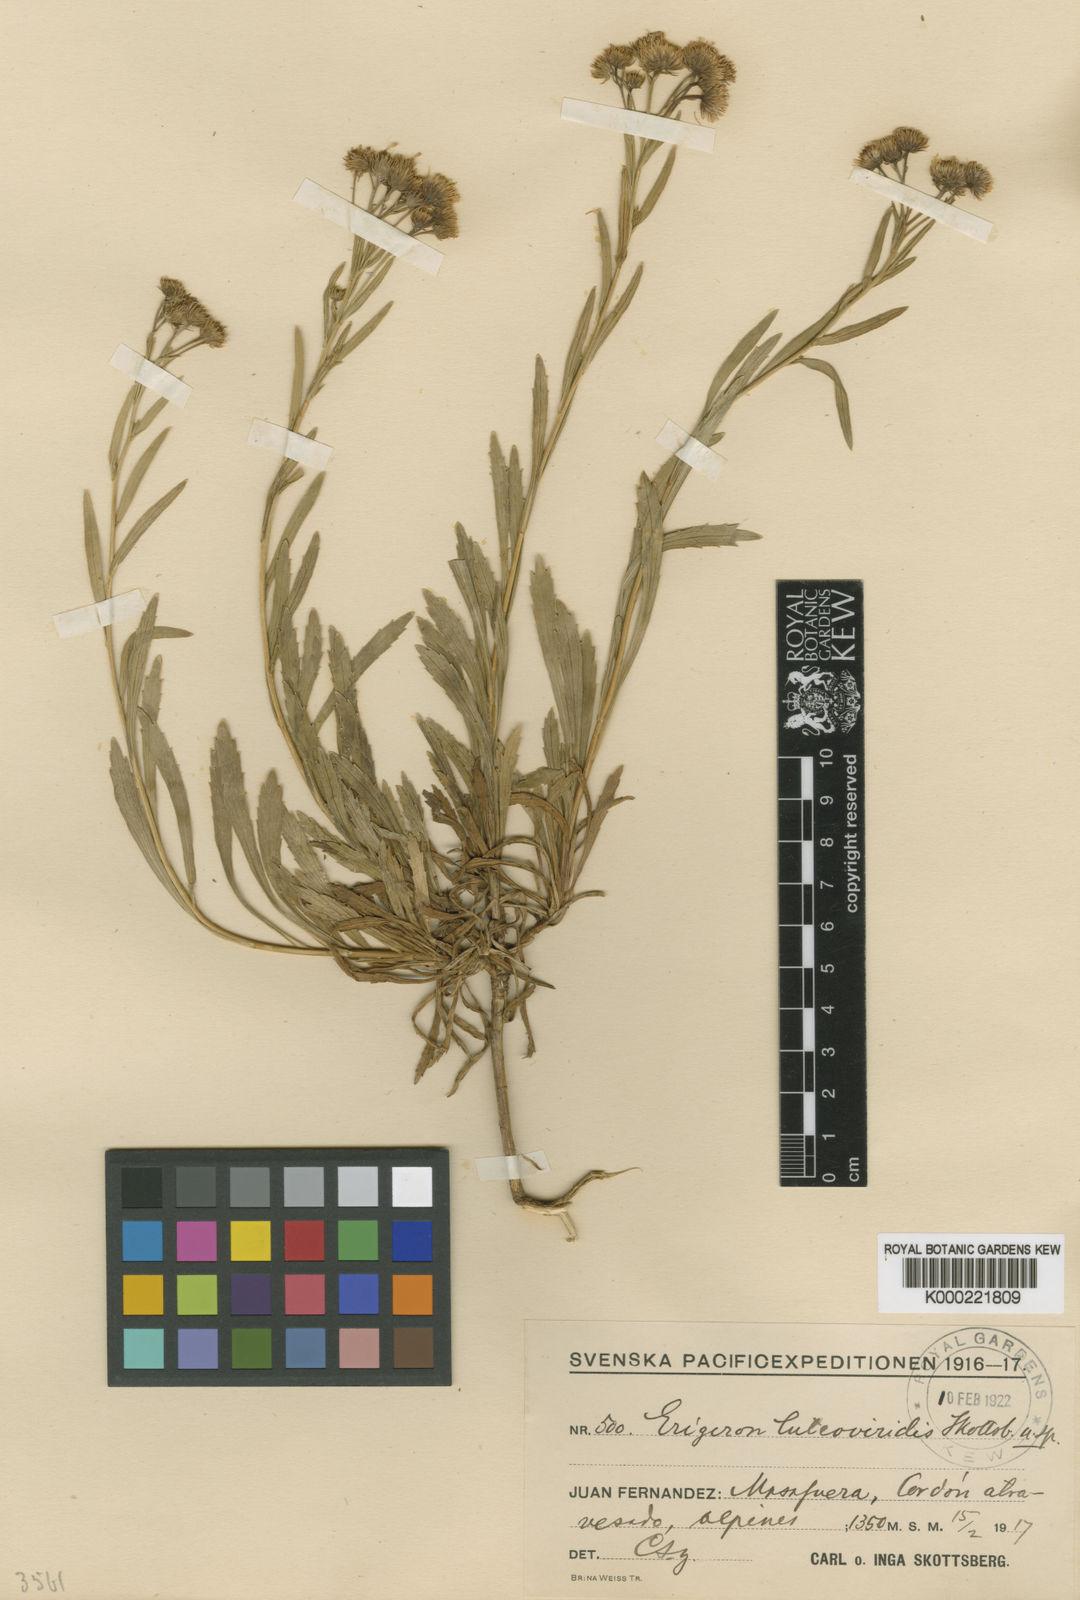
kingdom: Plantae
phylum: Tracheophyta
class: Magnoliopsida
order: Asterales
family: Asteraceae
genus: Erigeron
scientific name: Erigeron luteoviridis
